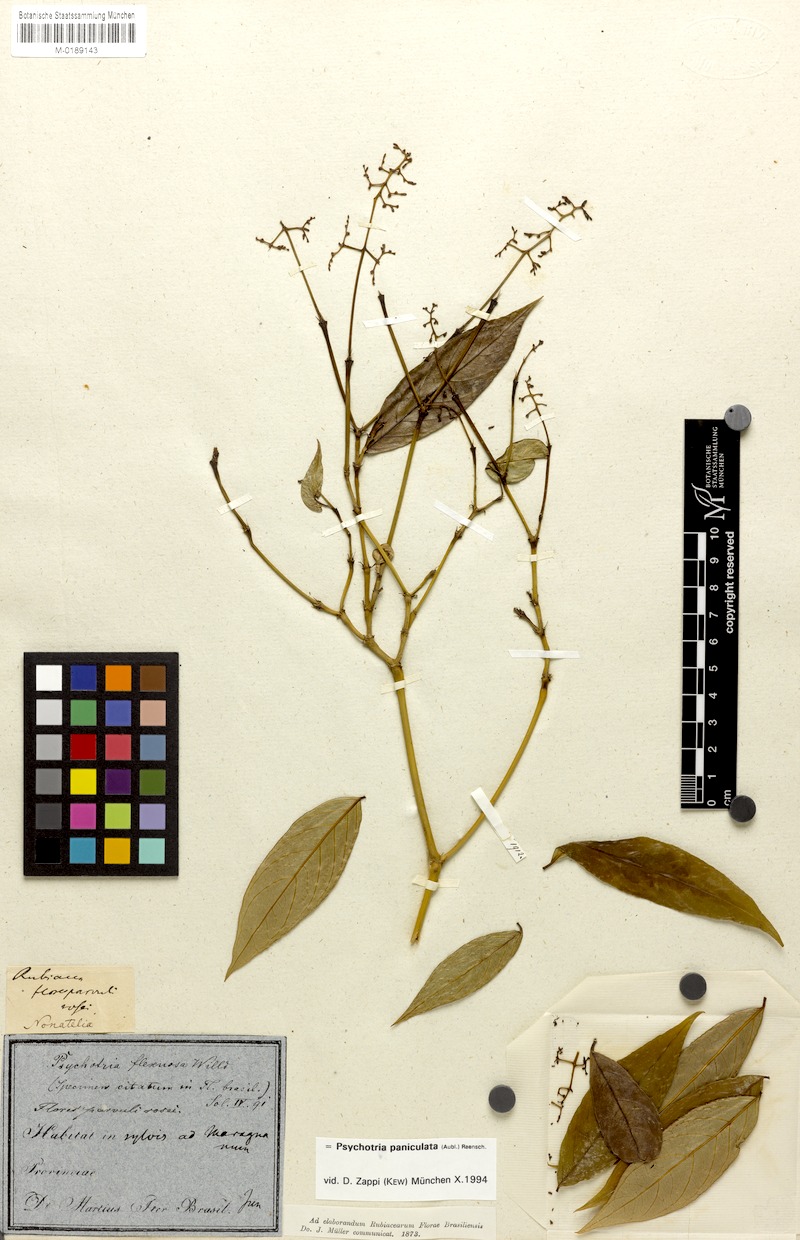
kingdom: Plantae
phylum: Tracheophyta
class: Magnoliopsida
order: Gentianales
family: Rubiaceae
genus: Palicourea
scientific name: Palicourea paniculata
